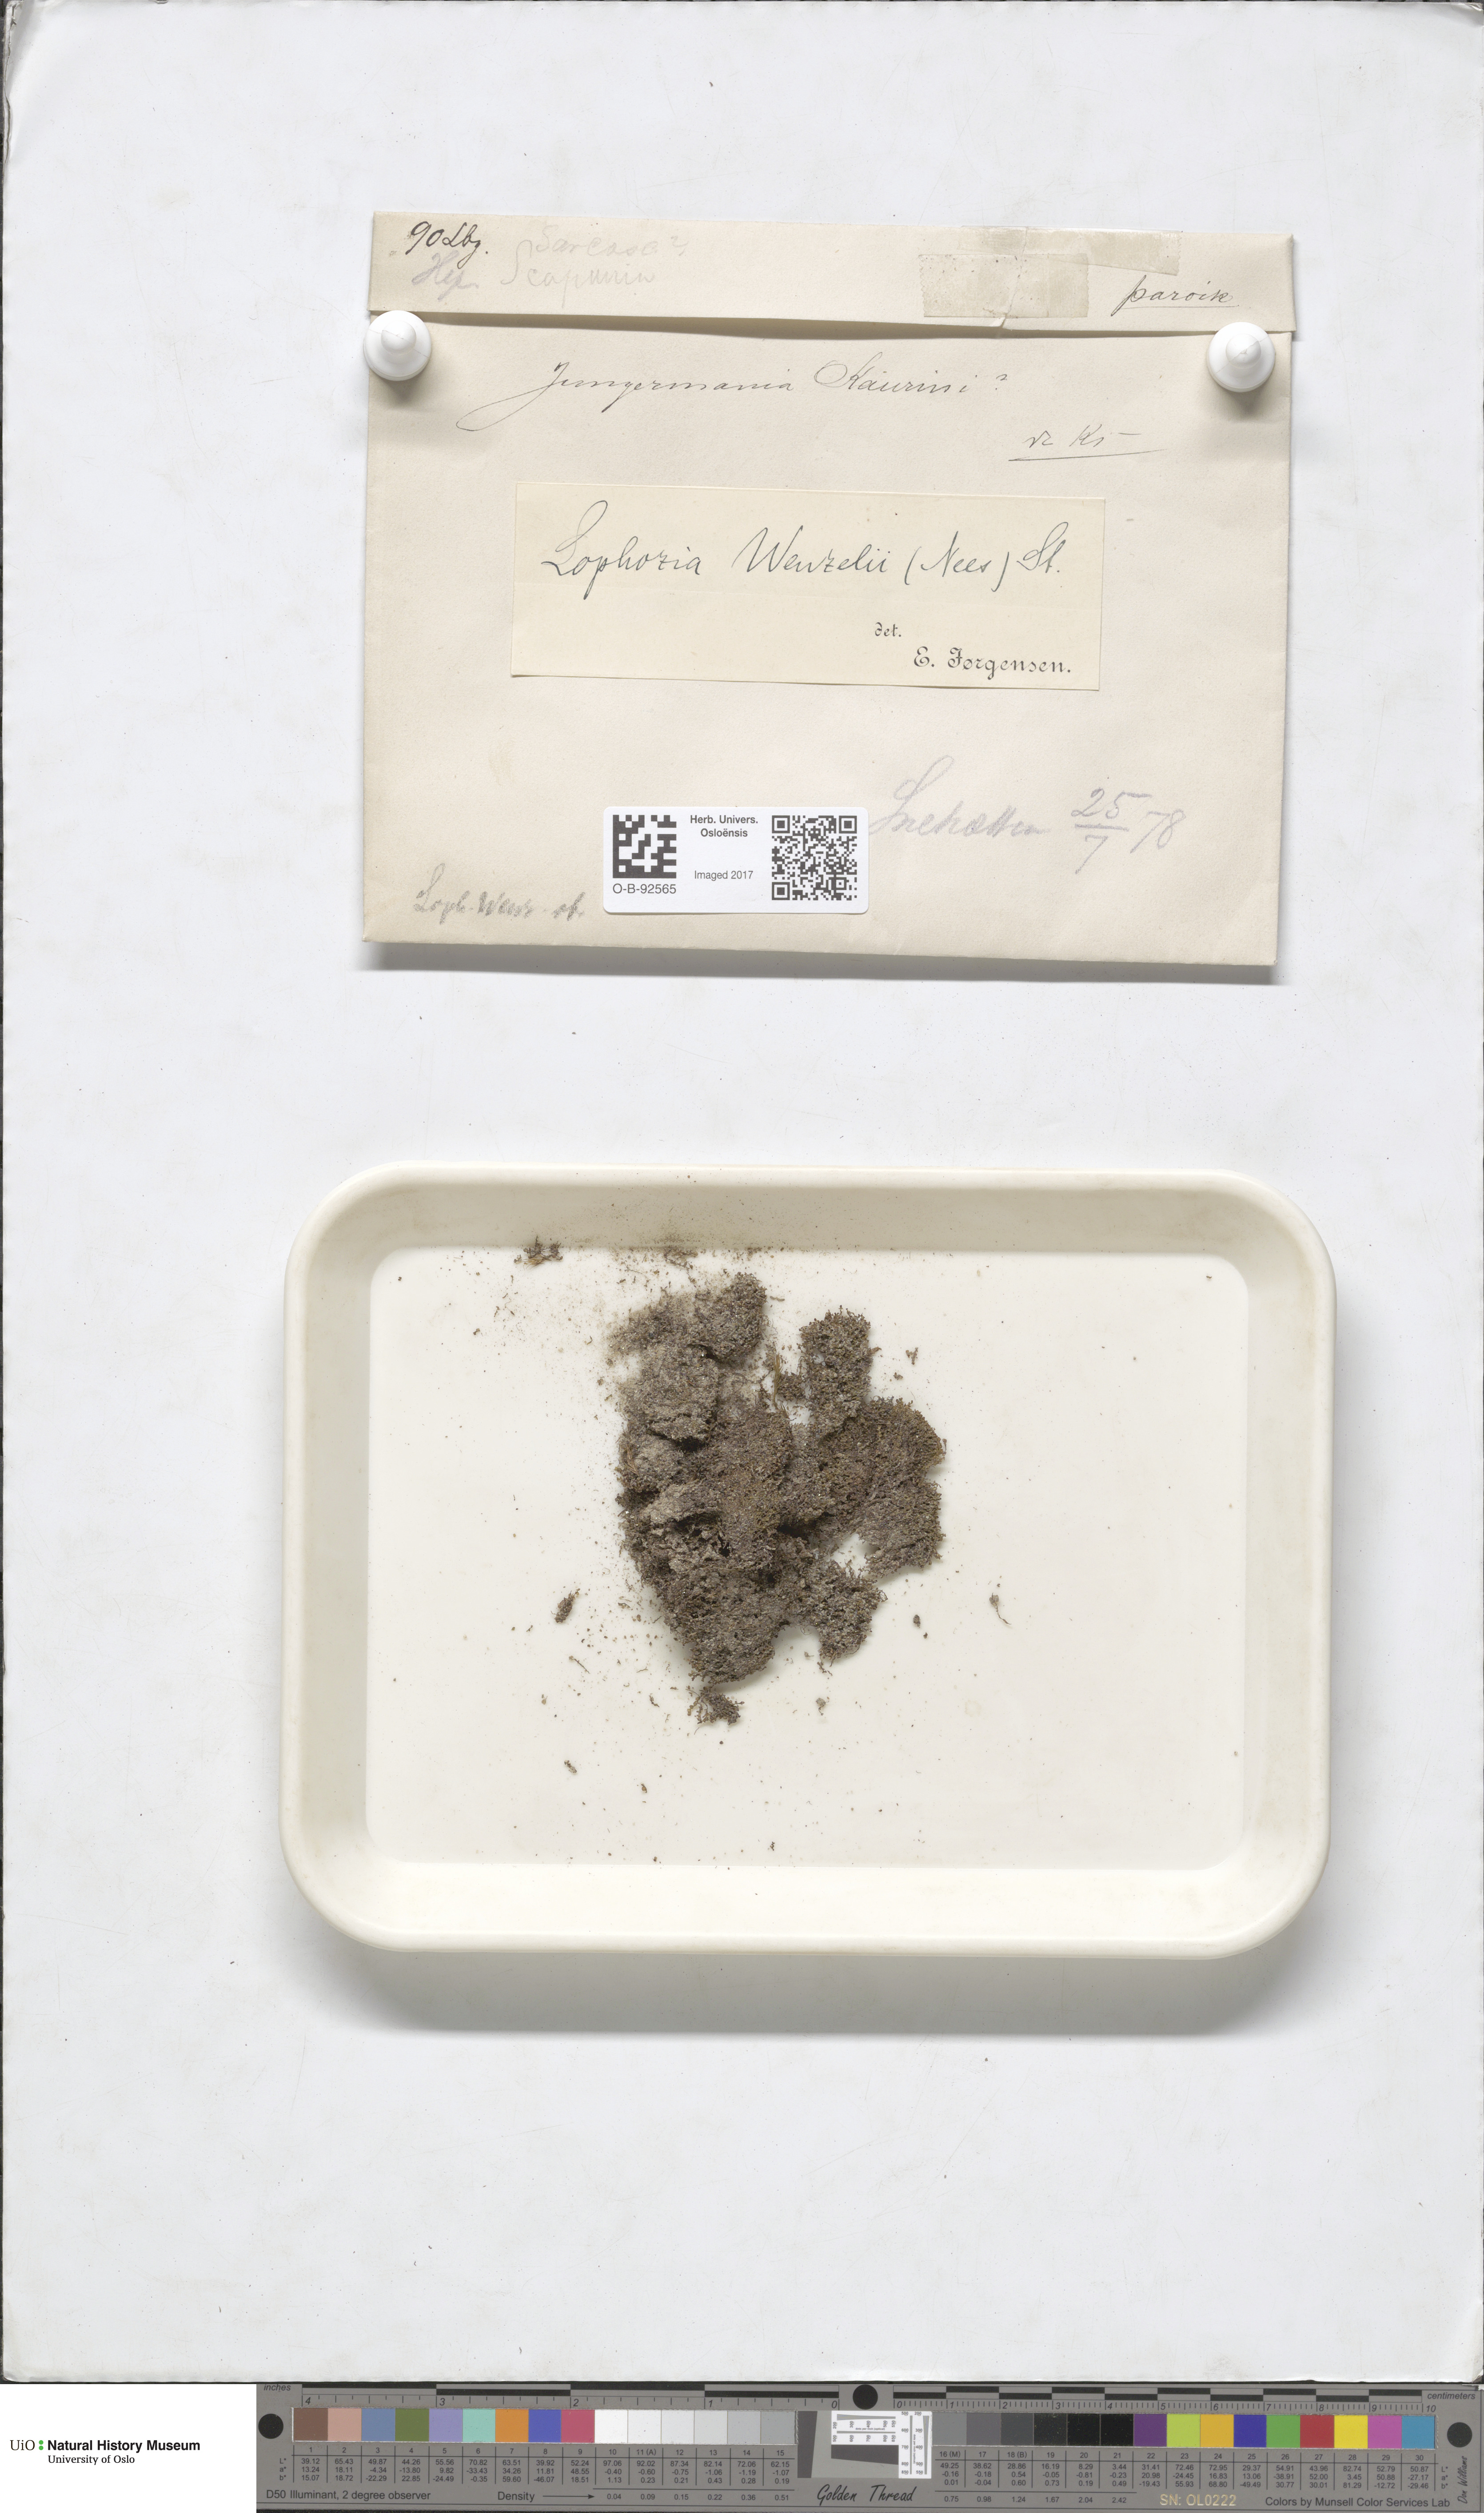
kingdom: Plantae
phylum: Marchantiophyta
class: Jungermanniopsida
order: Jungermanniales
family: Lophoziaceae
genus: Lophozia
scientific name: Lophozia
